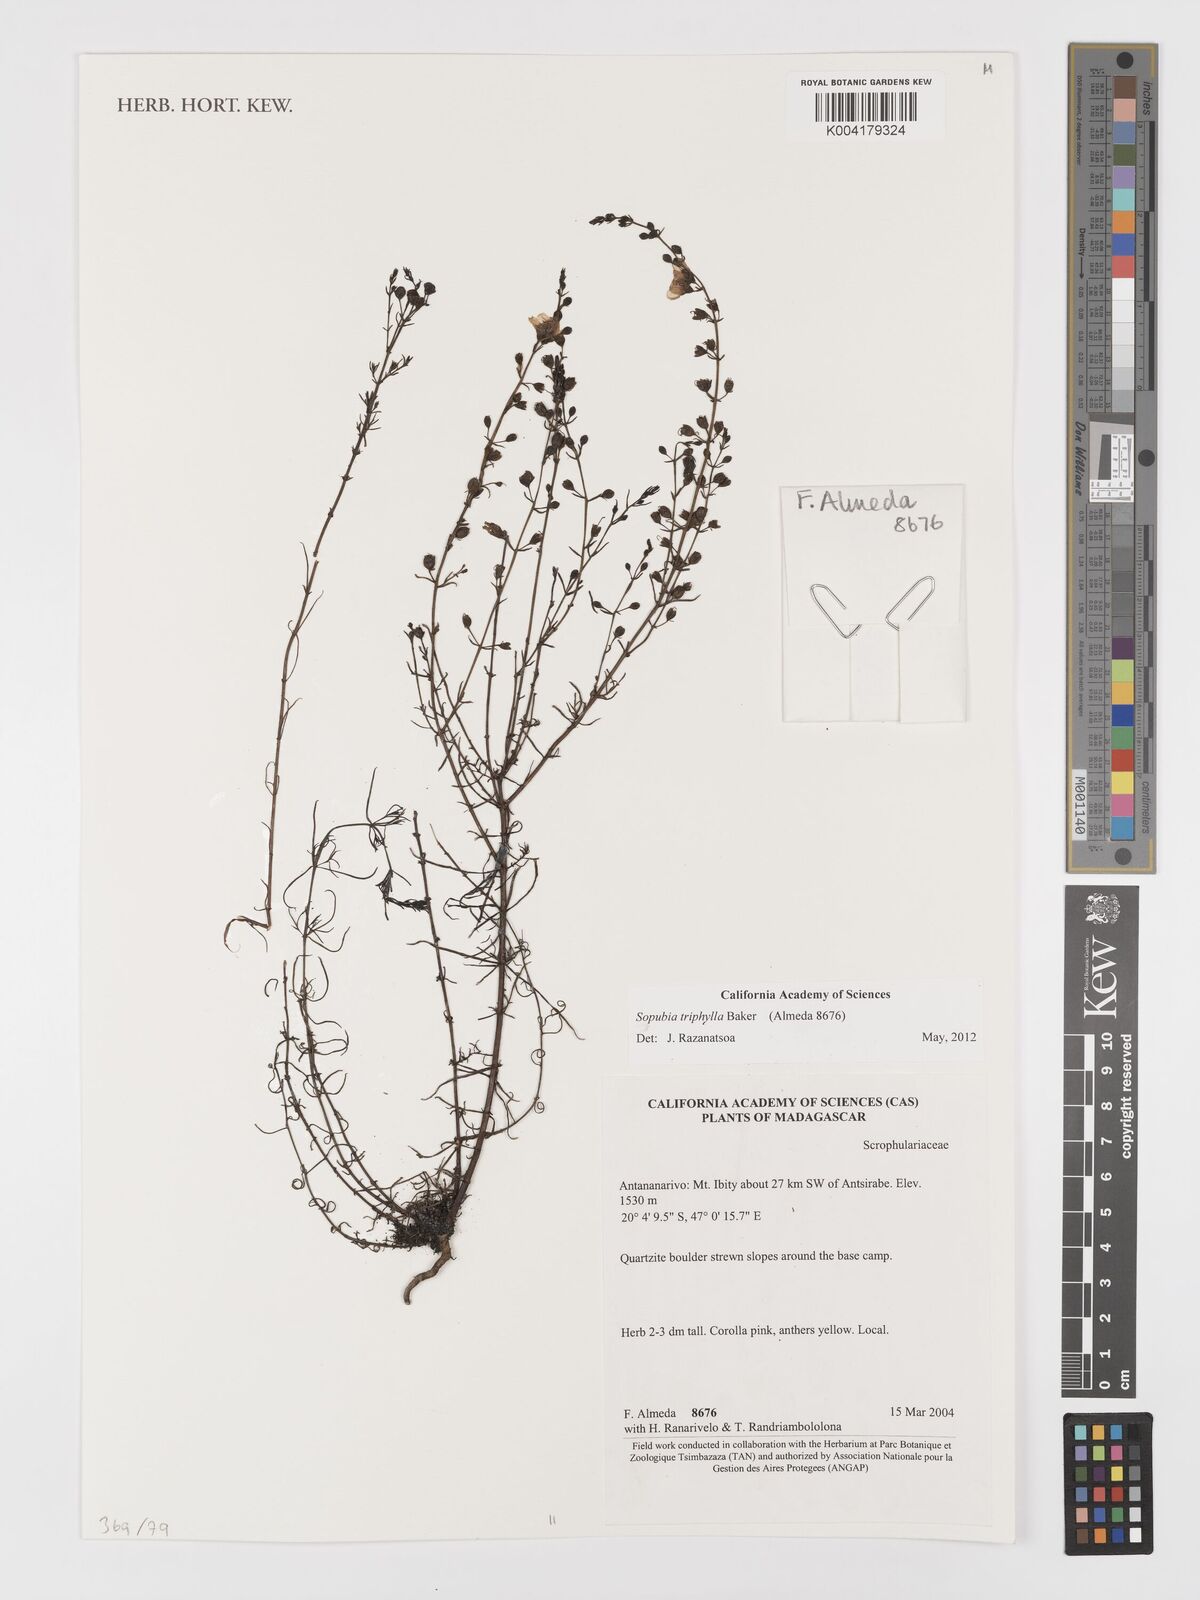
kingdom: Plantae
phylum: Tracheophyta
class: Magnoliopsida
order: Lamiales
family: Orobanchaceae
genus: Sopubia
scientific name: Sopubia triphylla
